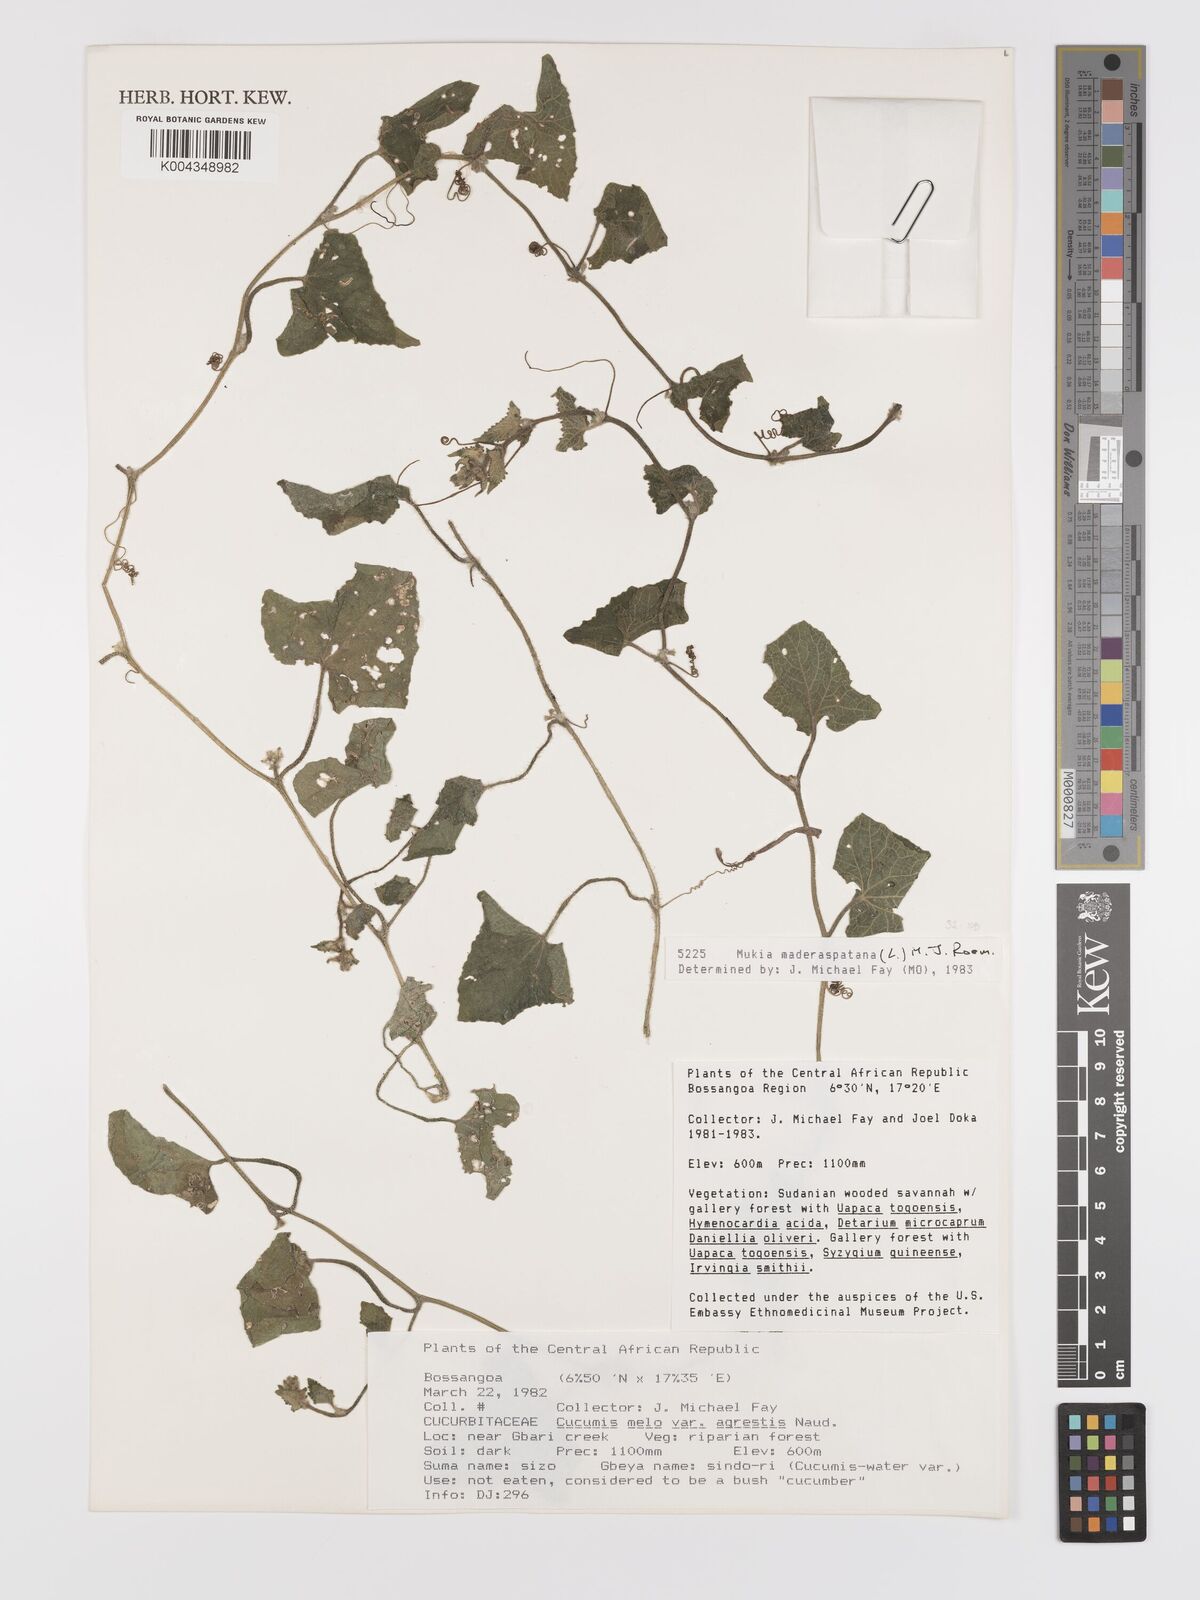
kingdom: Plantae
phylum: Tracheophyta
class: Magnoliopsida
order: Cucurbitales
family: Cucurbitaceae
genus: Cucumis
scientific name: Cucumis maderaspatanus
